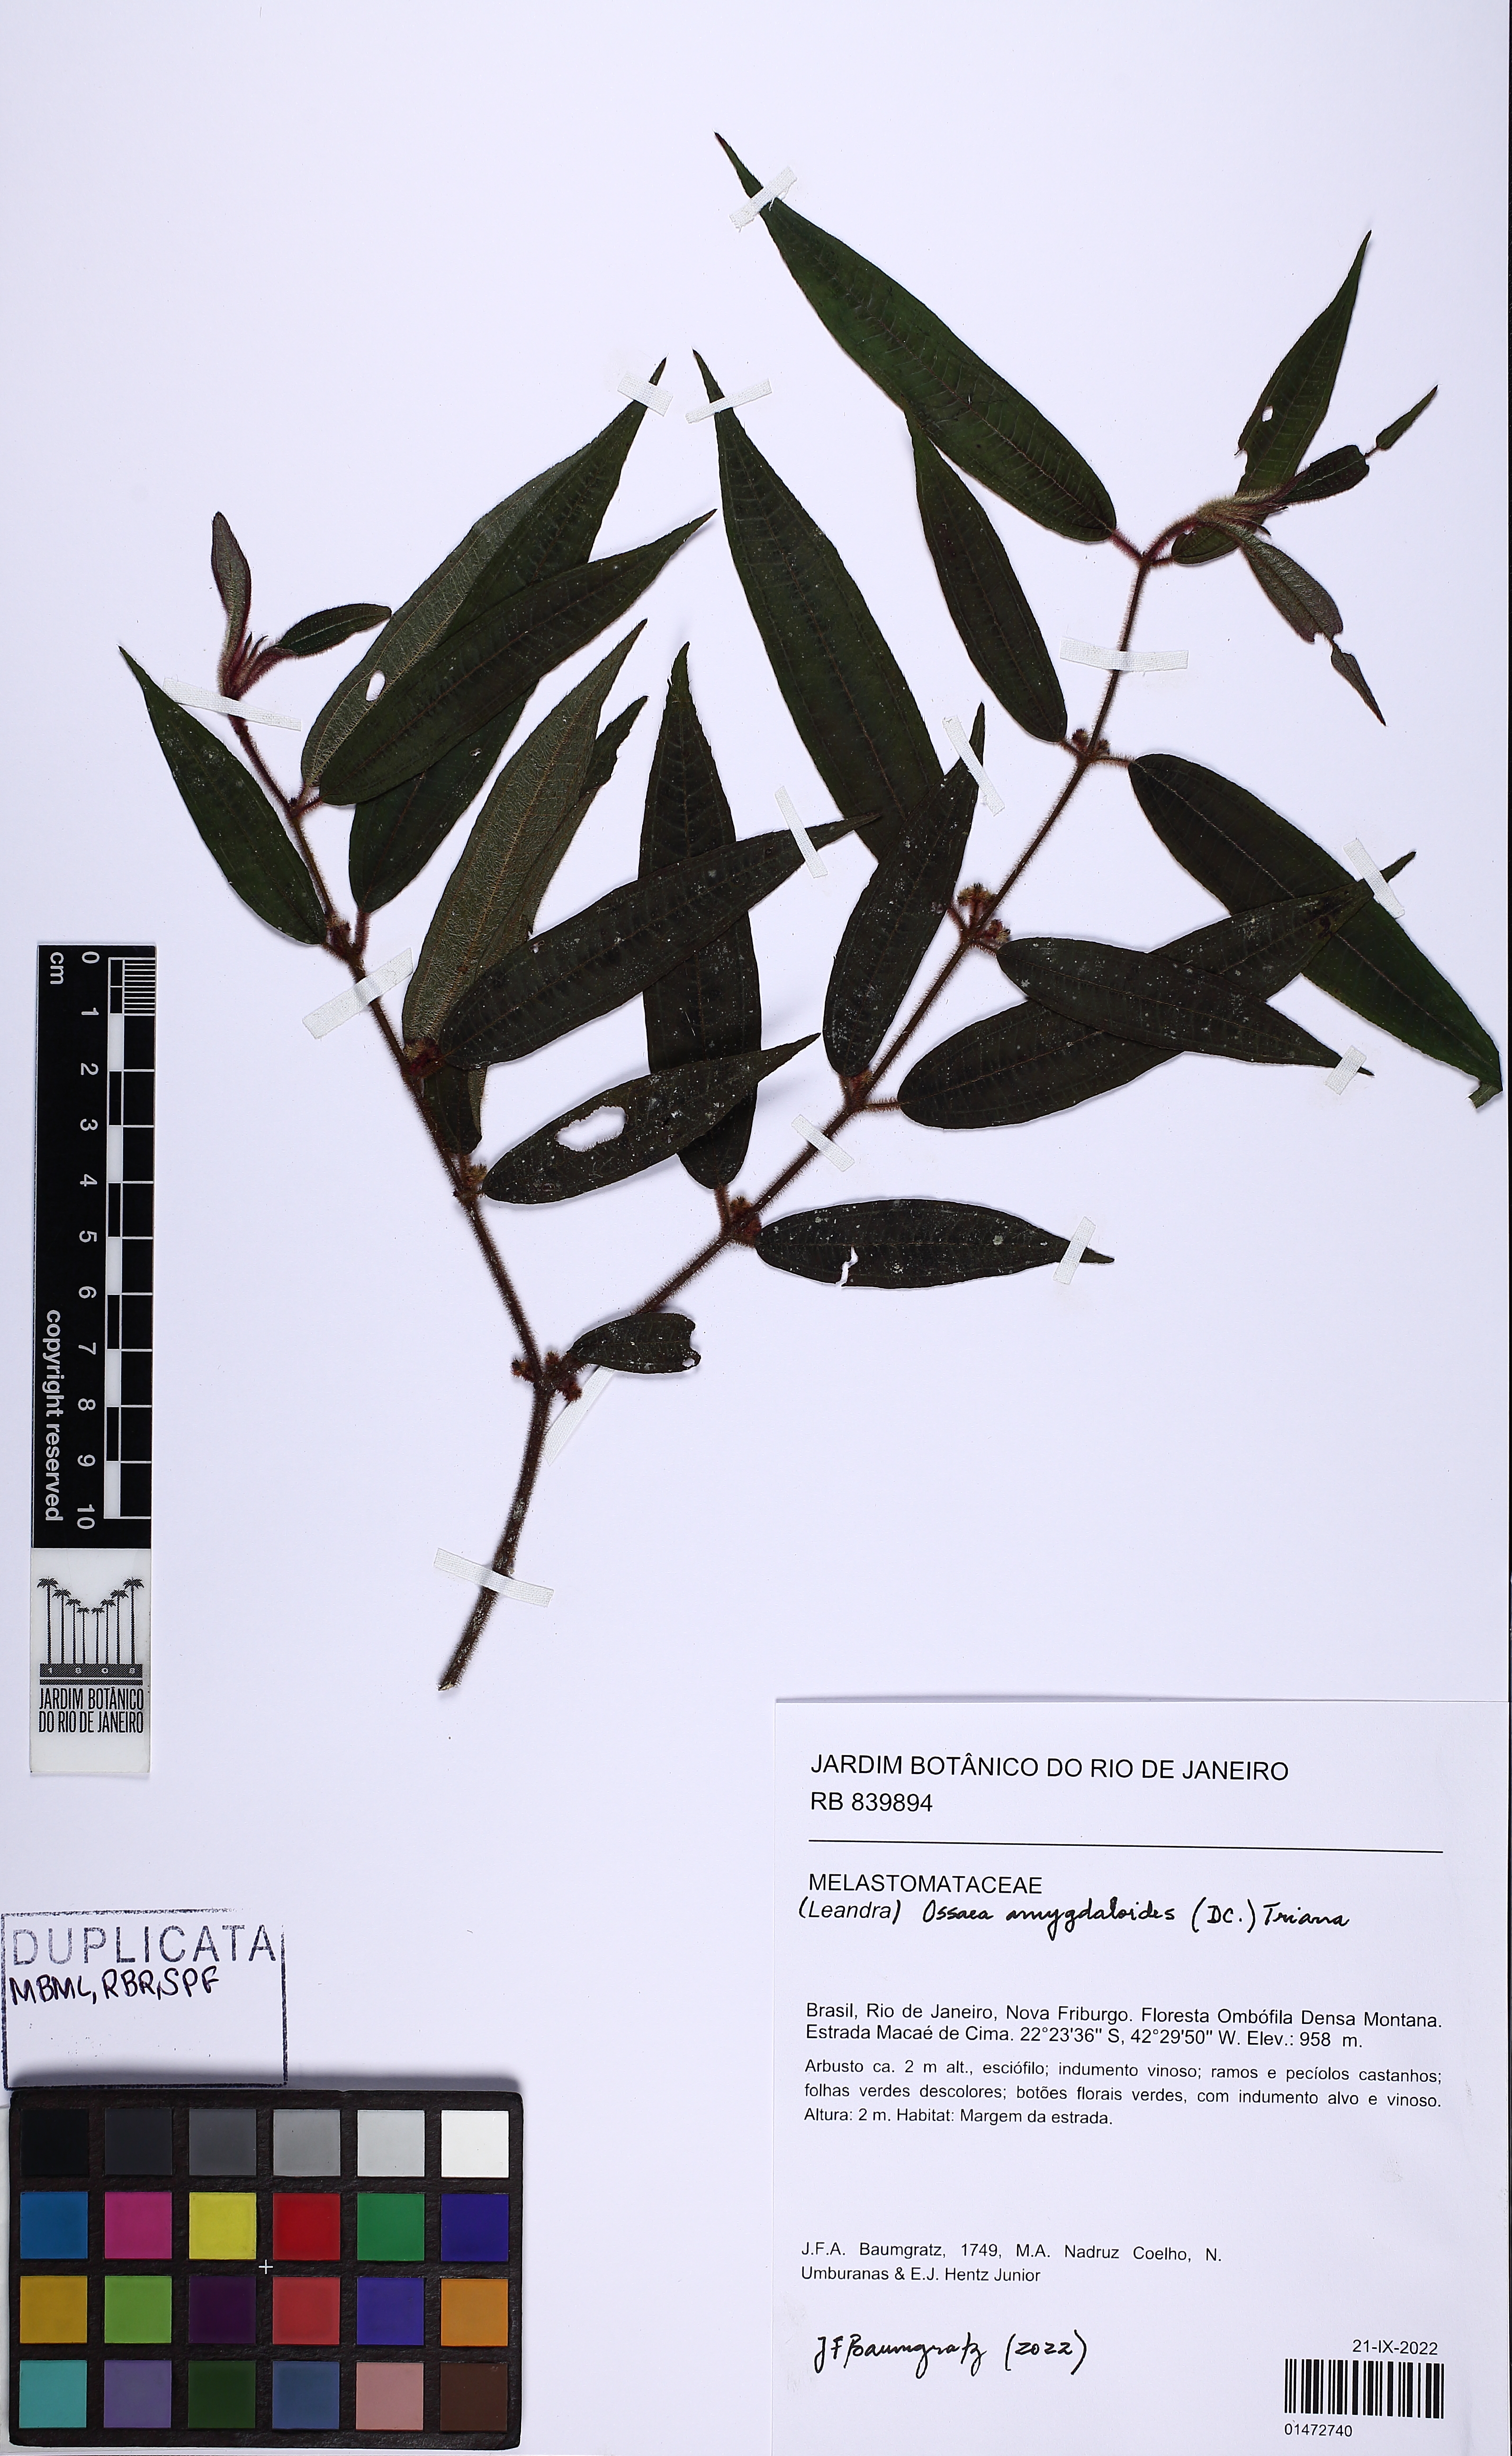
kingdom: Plantae
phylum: Tracheophyta
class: Magnoliopsida
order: Myrtales
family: Melastomataceae
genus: Miconia
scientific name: Miconia amygdaloides
